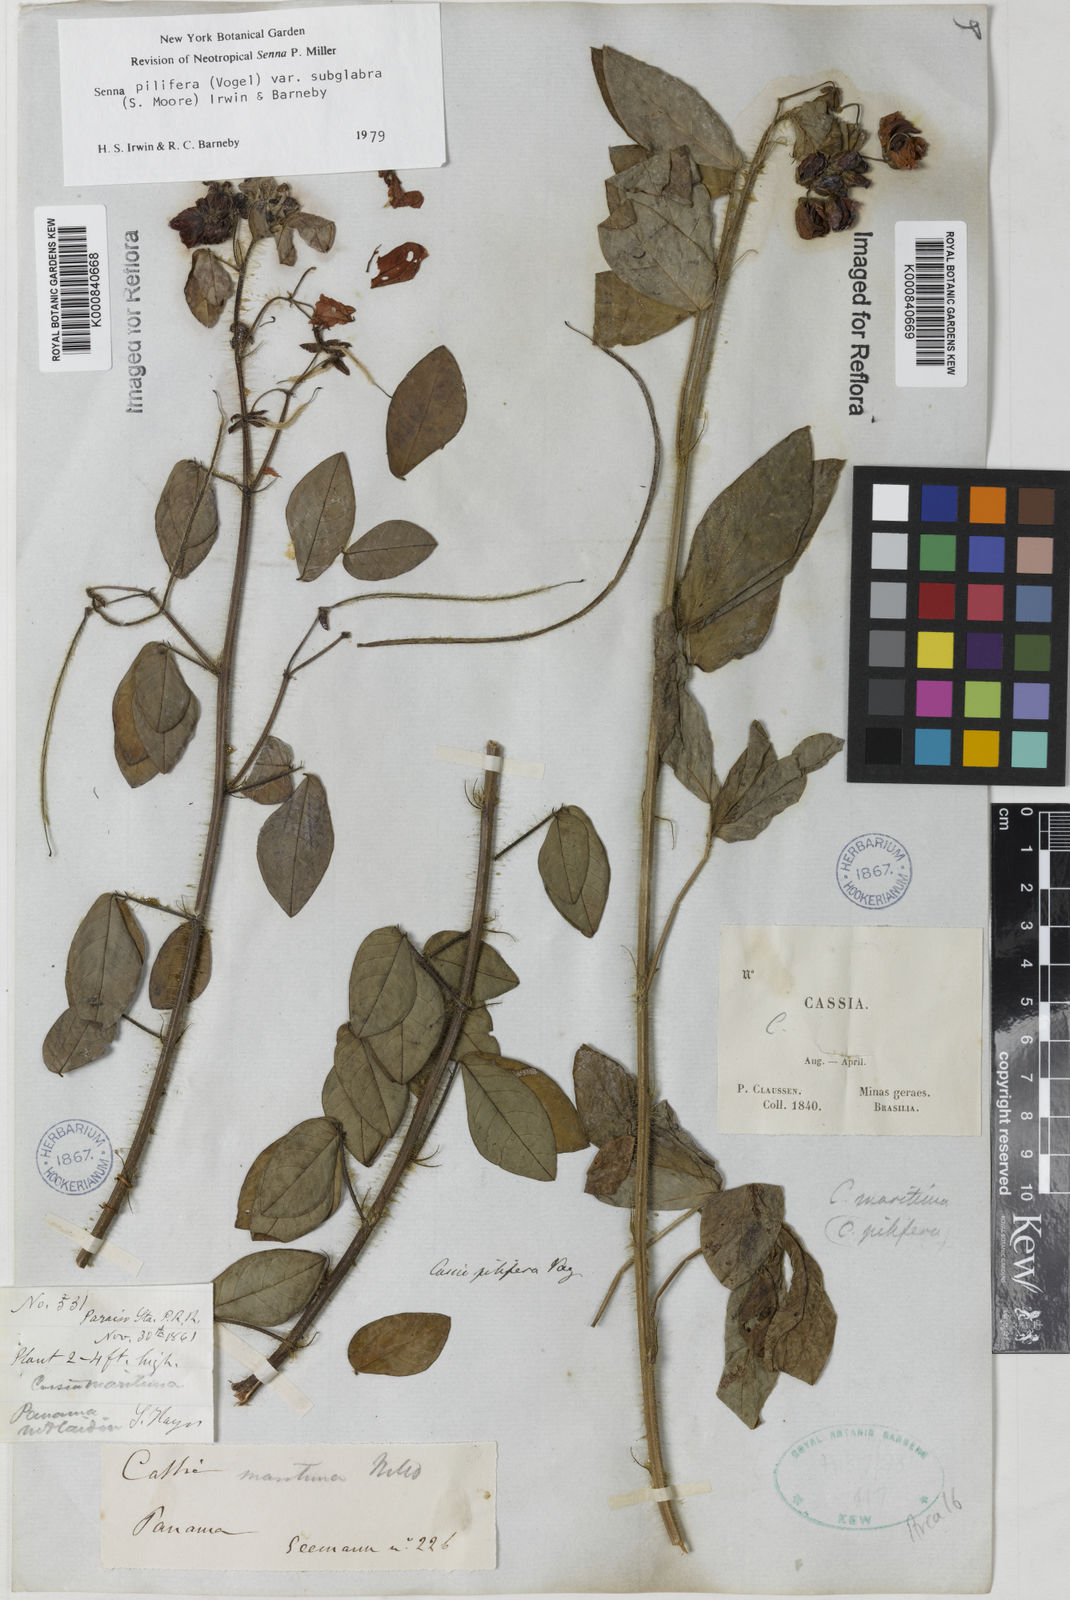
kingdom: Plantae
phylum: Tracheophyta
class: Magnoliopsida
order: Fabales
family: Fabaceae
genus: Senna
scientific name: Senna pilifera
